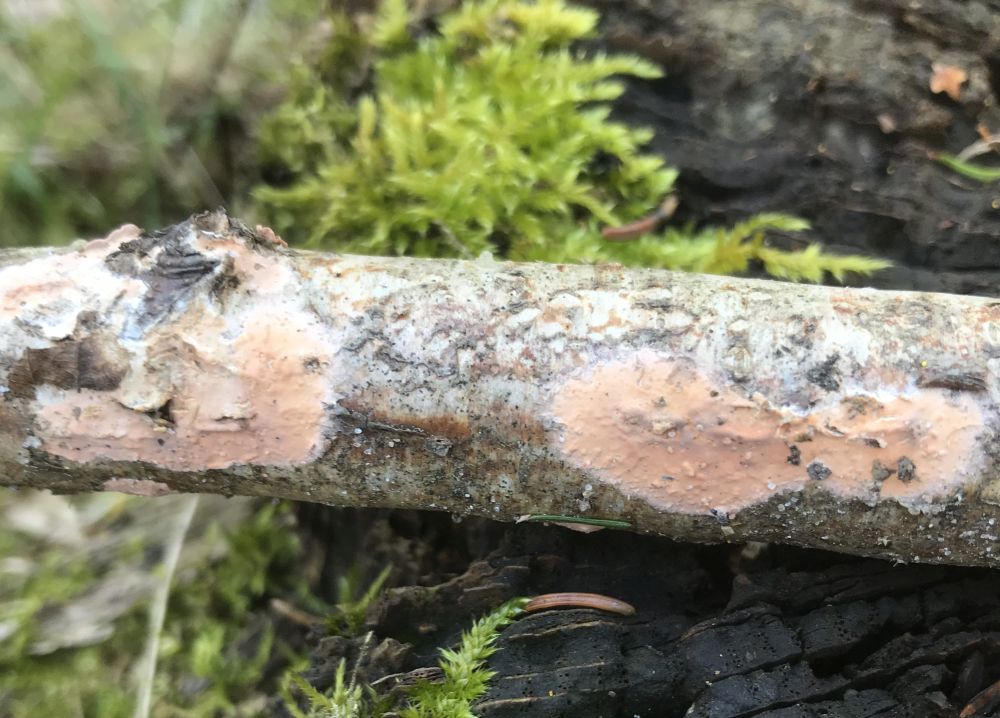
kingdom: Fungi
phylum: Basidiomycota
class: Agaricomycetes
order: Russulales
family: Peniophoraceae
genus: Peniophora
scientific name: Peniophora incarnata
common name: laksefarvet voksskind
